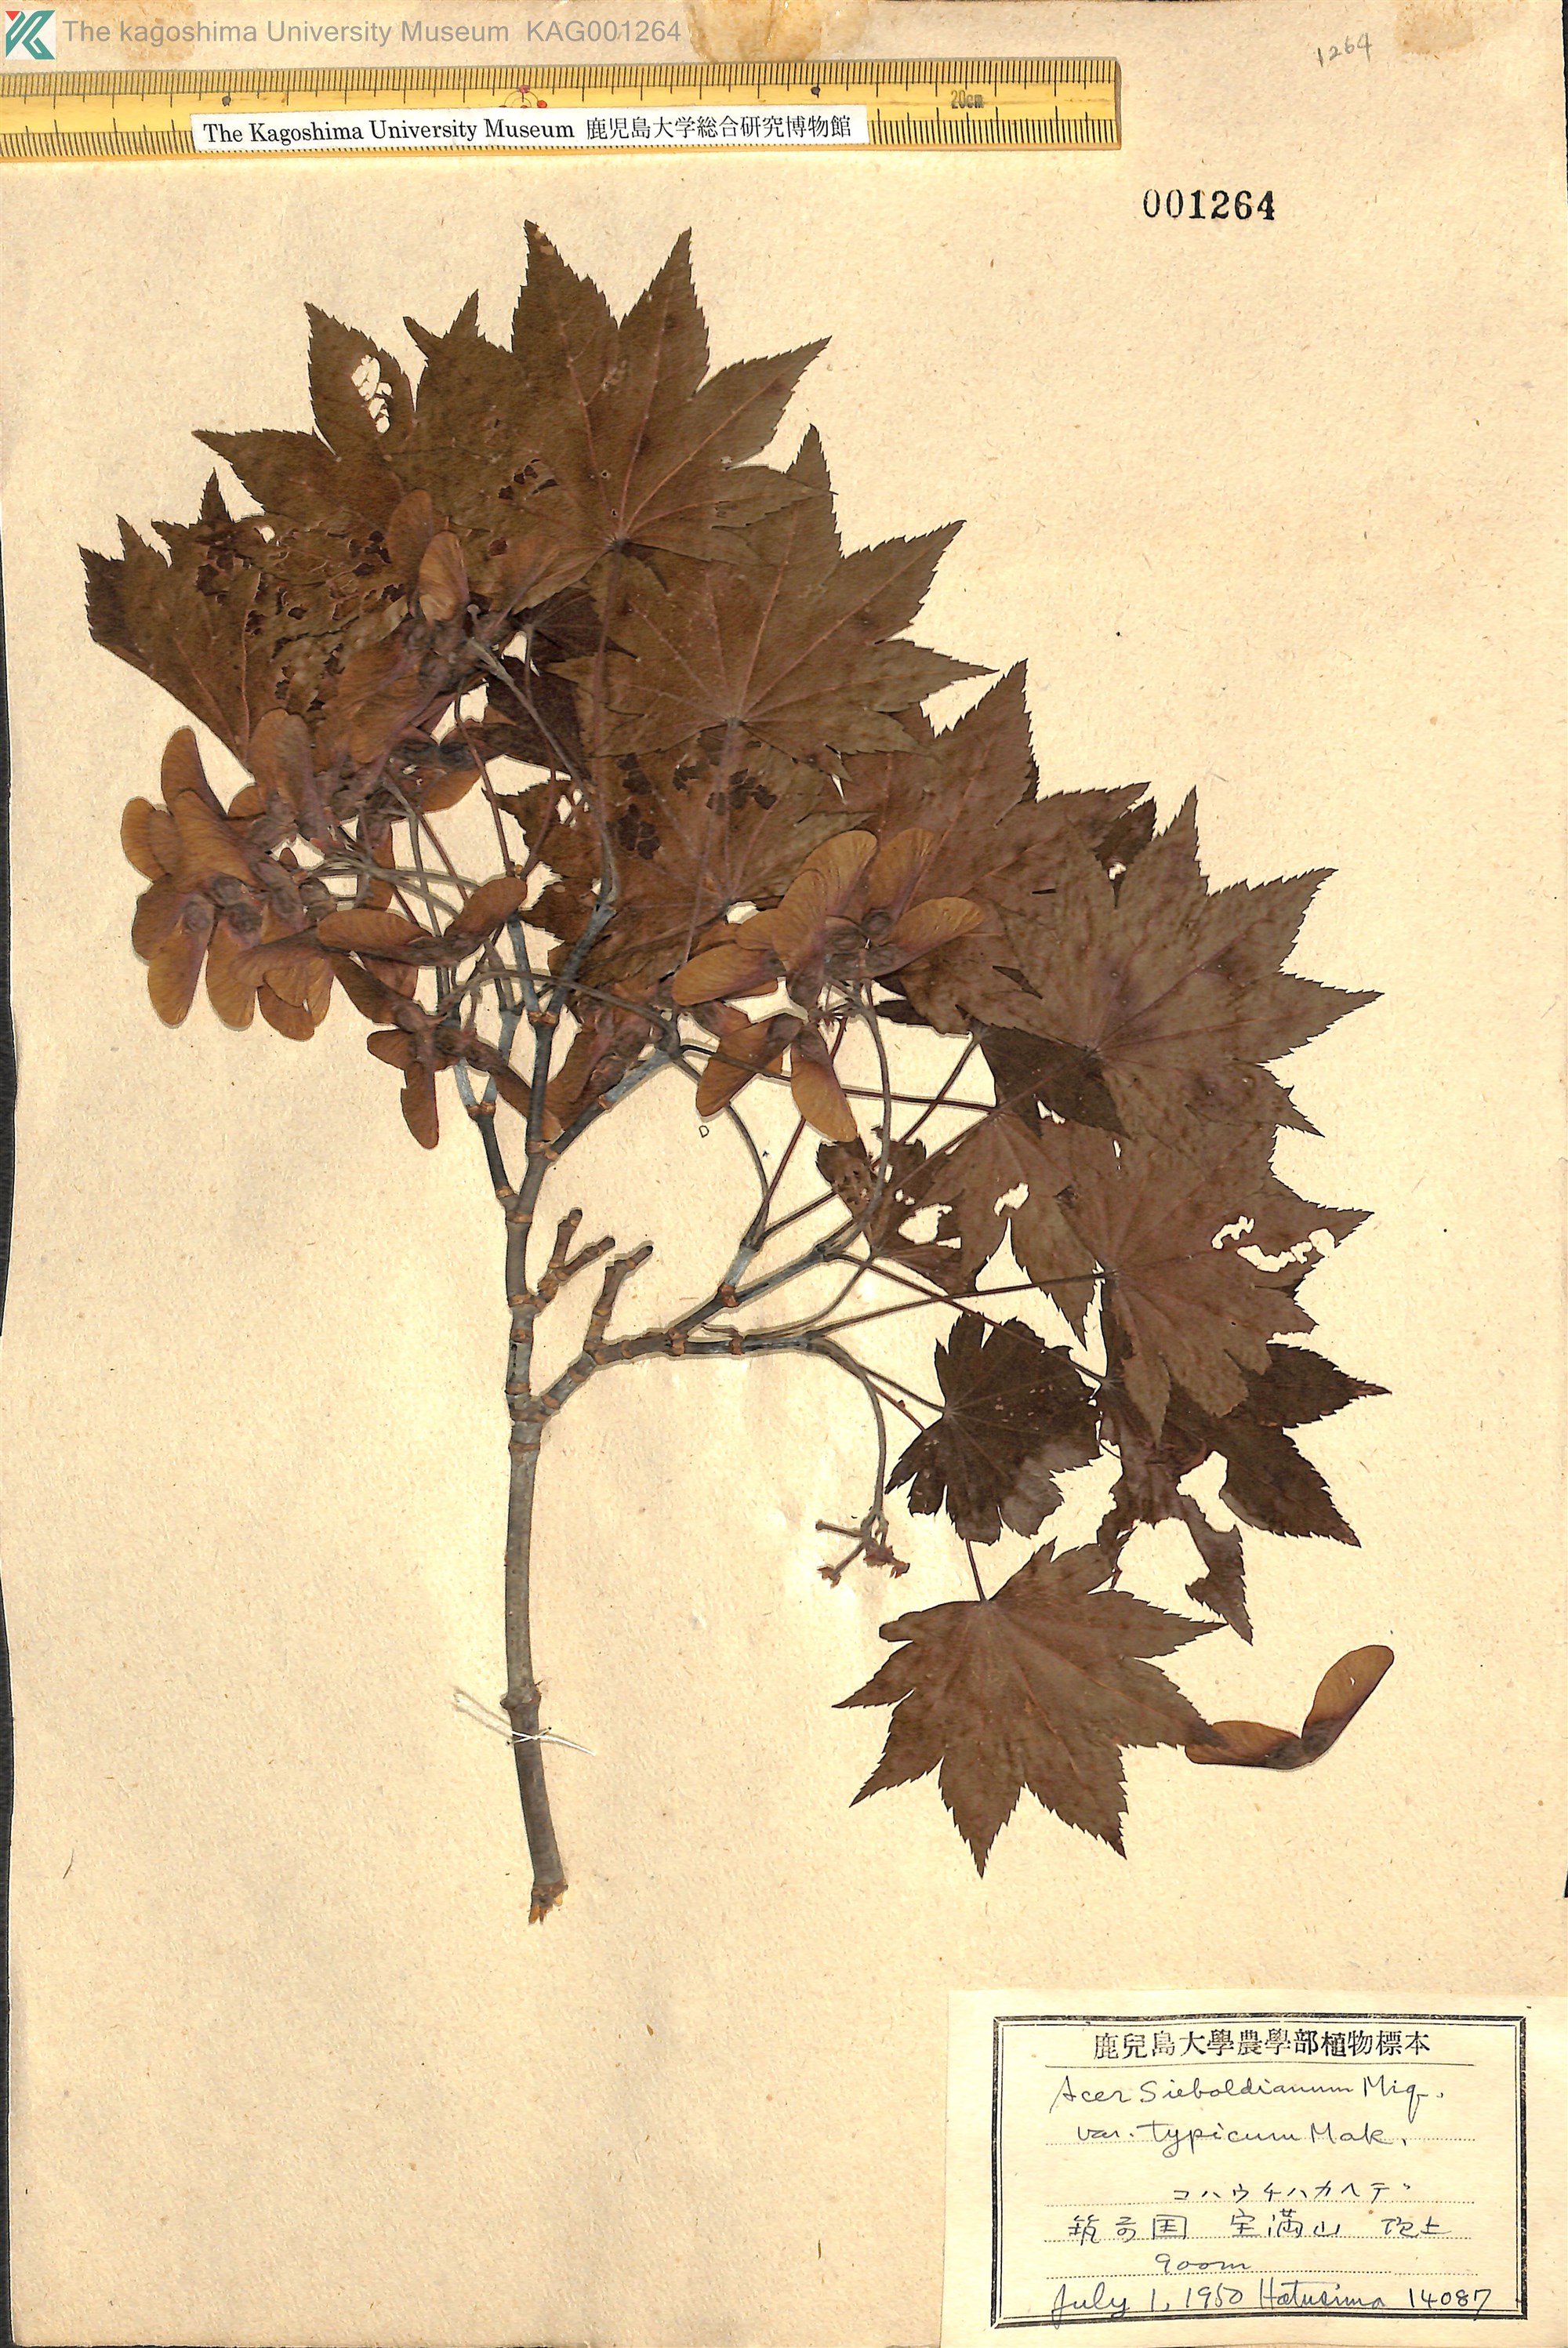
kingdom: Plantae
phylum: Tracheophyta
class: Magnoliopsida
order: Sapindales
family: Sapindaceae
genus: Acer
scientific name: Acer sieboldianum
